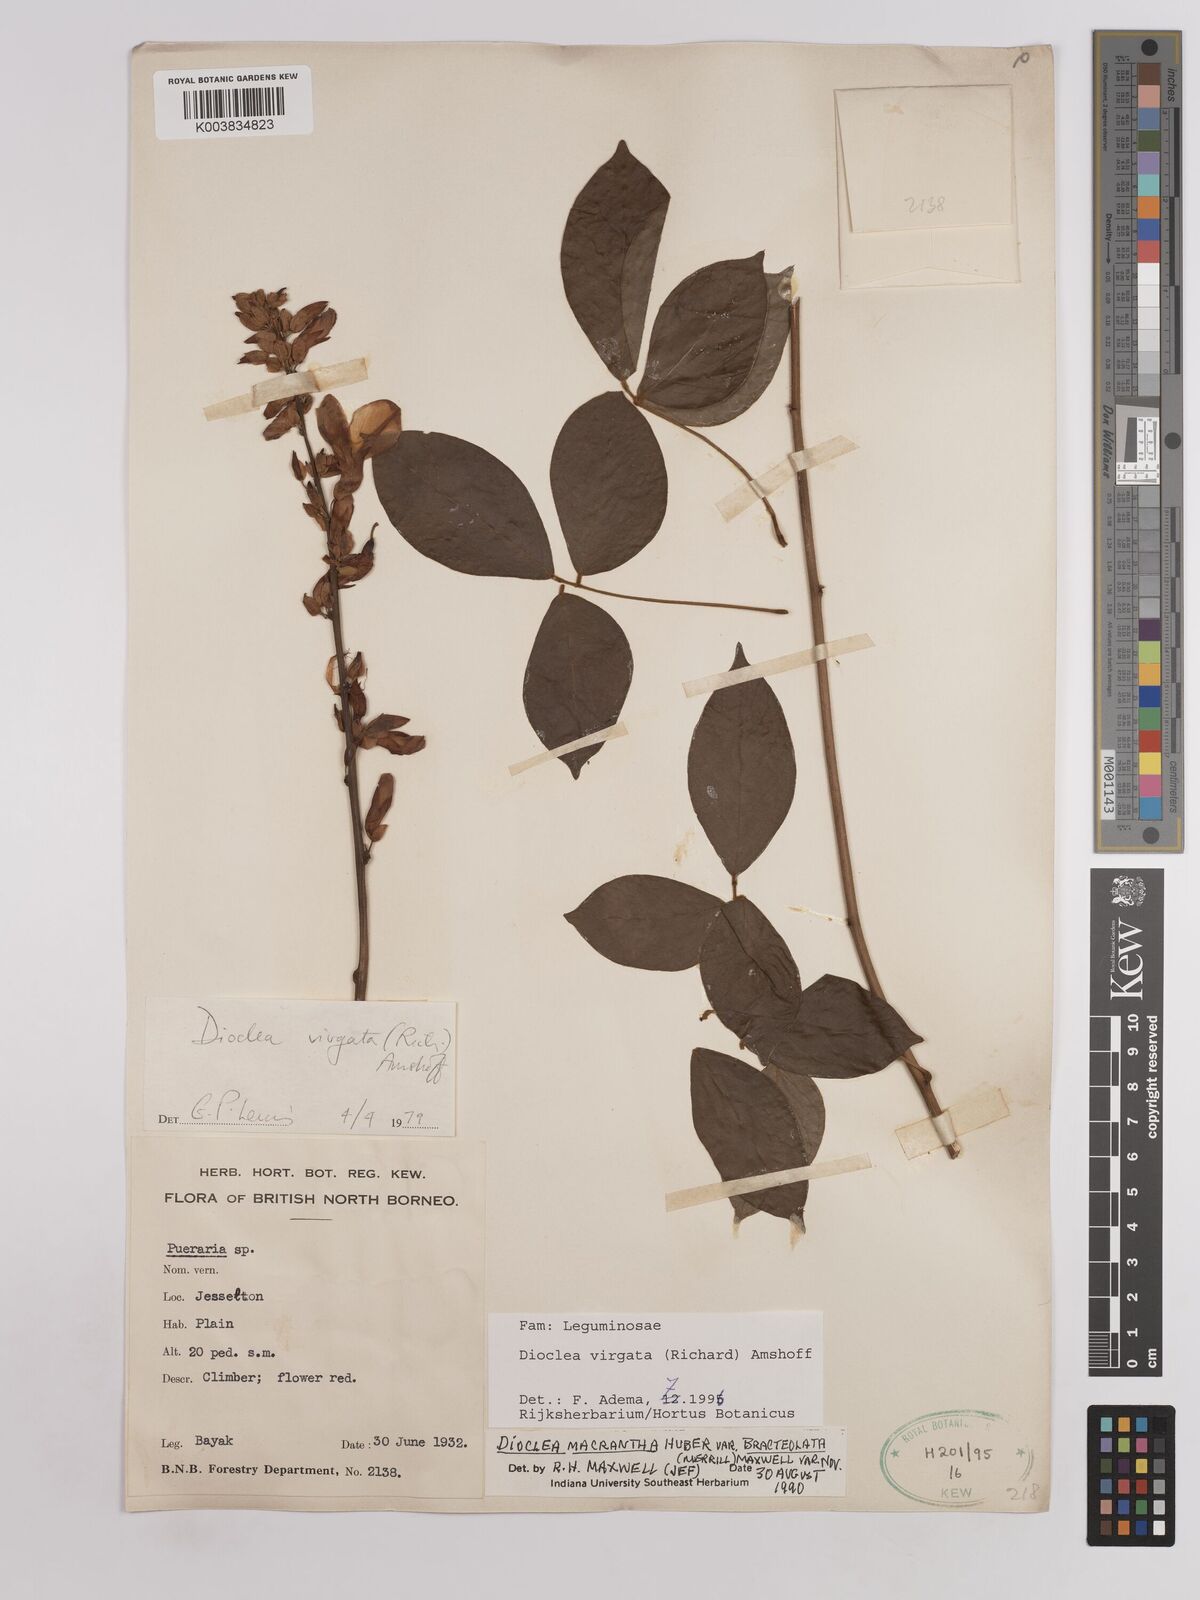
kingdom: Plantae
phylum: Tracheophyta
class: Magnoliopsida
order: Fabales
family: Fabaceae
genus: Dioclea
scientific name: Dioclea virgata
